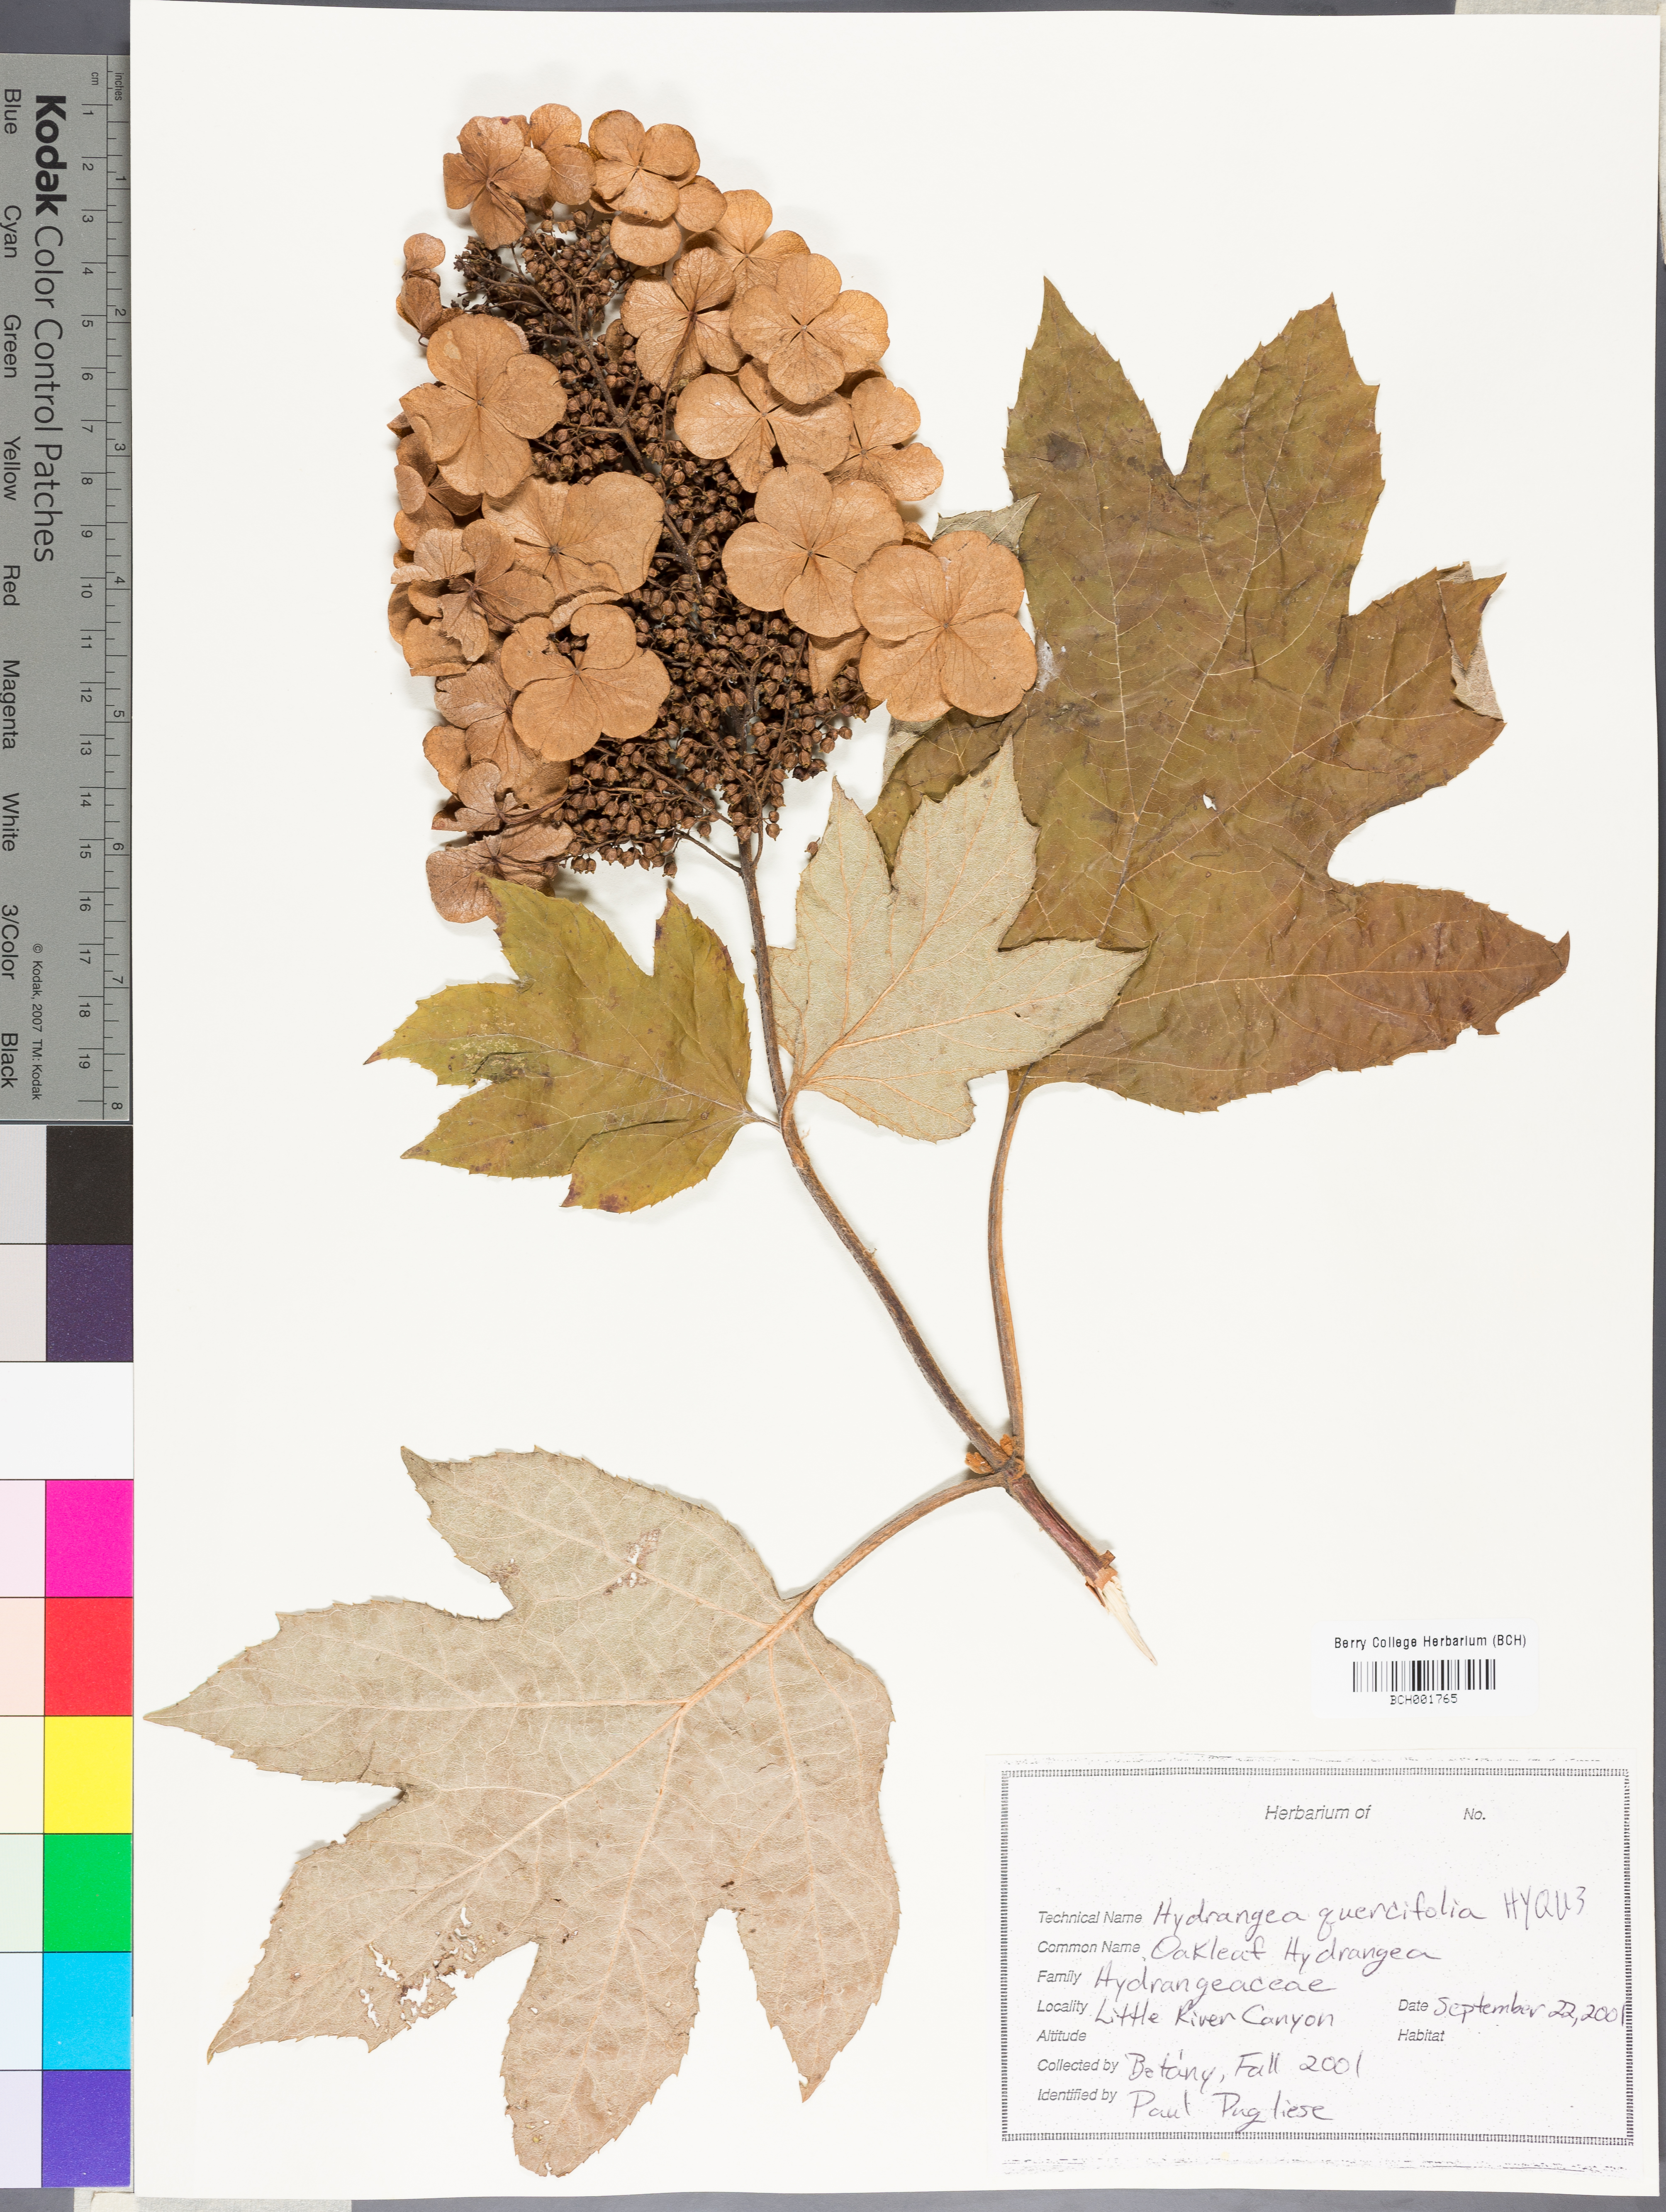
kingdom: Plantae
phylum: Tracheophyta
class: Magnoliopsida
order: Cornales
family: Hydrangeaceae
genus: Hydrangea
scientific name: Hydrangea quercifolia
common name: Oak-leaf hydrangea
